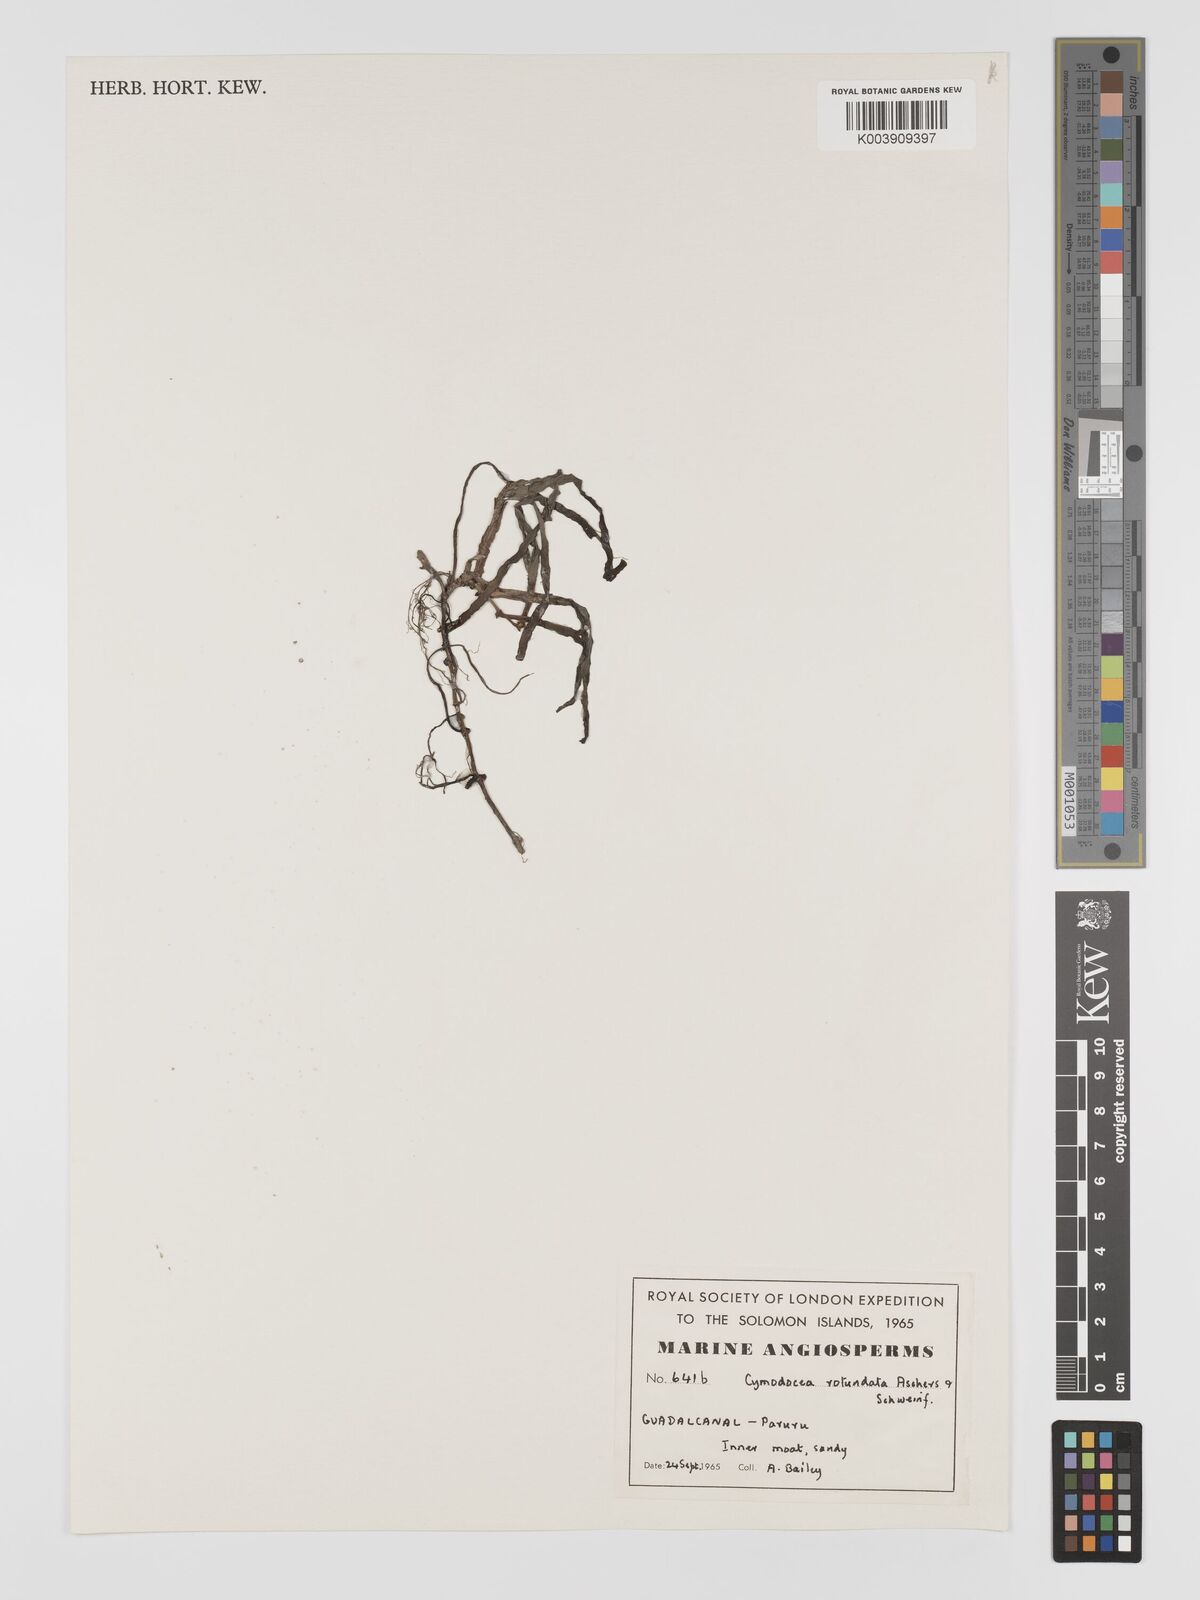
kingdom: Plantae
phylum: Tracheophyta
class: Liliopsida
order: Alismatales
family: Cymodoceaceae
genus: Cymodocea
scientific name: Cymodocea rotundata
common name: Species code: cr
